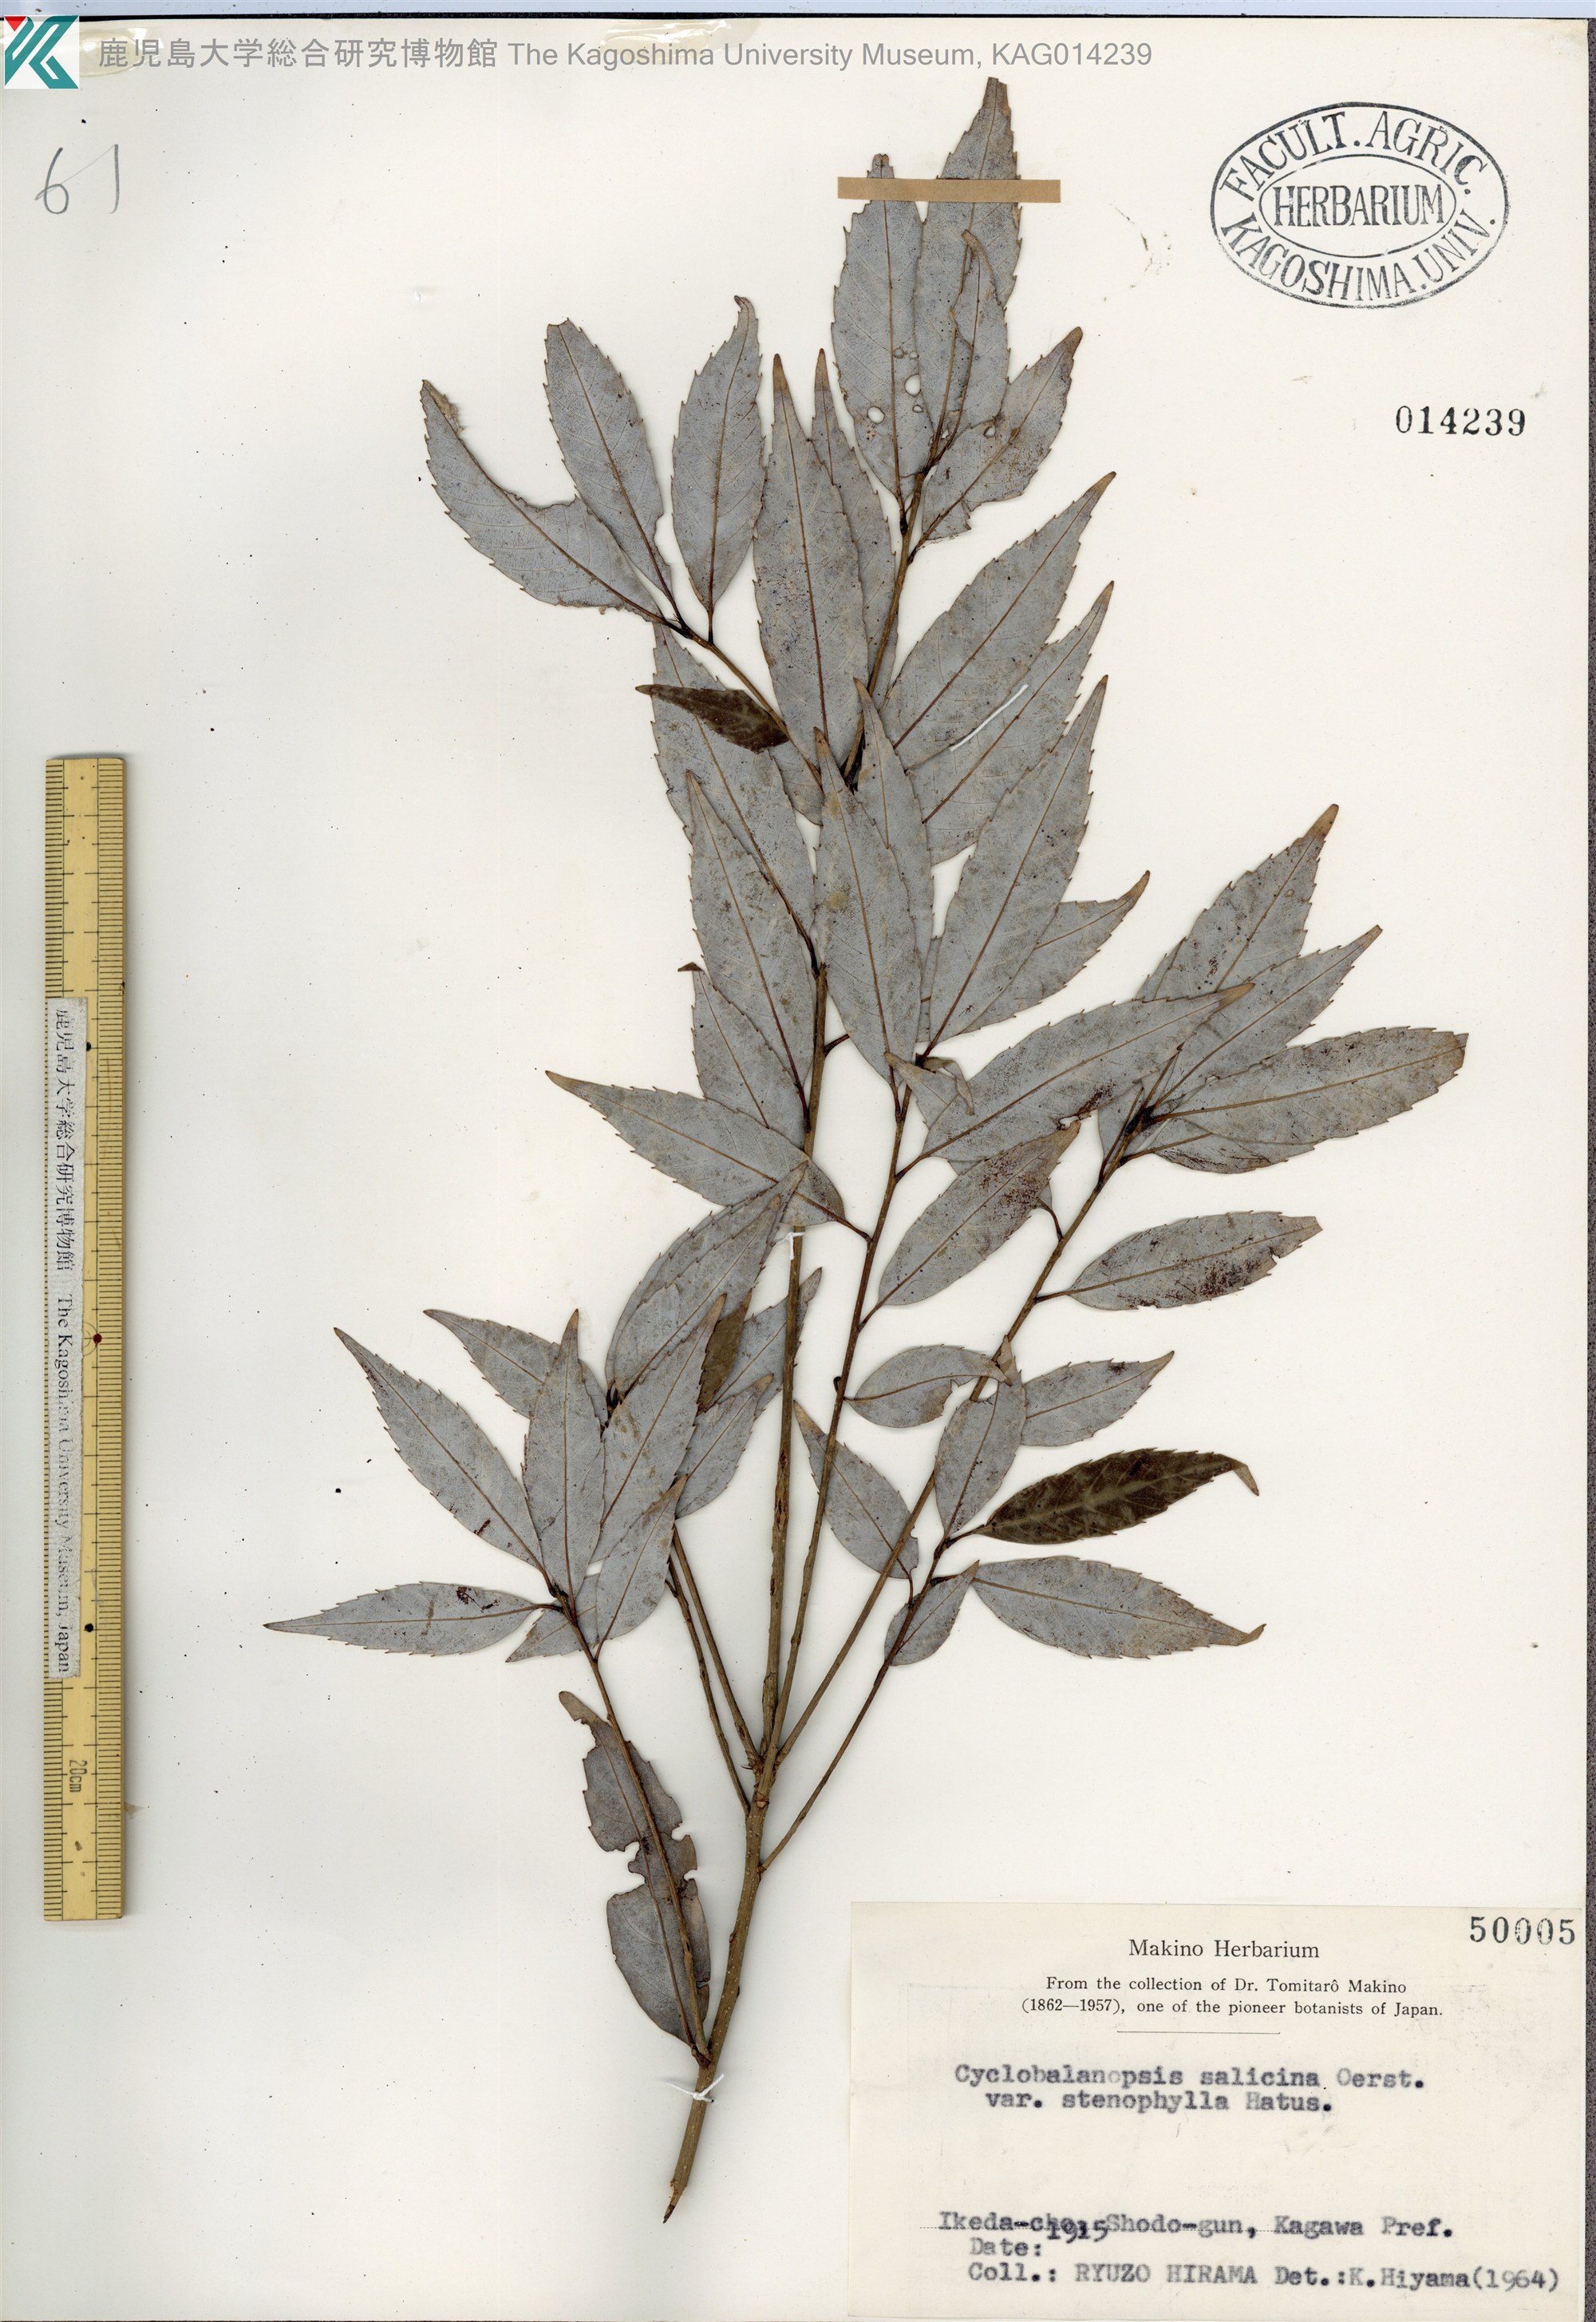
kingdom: Plantae
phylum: Tracheophyta
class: Magnoliopsida
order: Fagales
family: Fagaceae
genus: Quercus
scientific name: Quercus salicina
